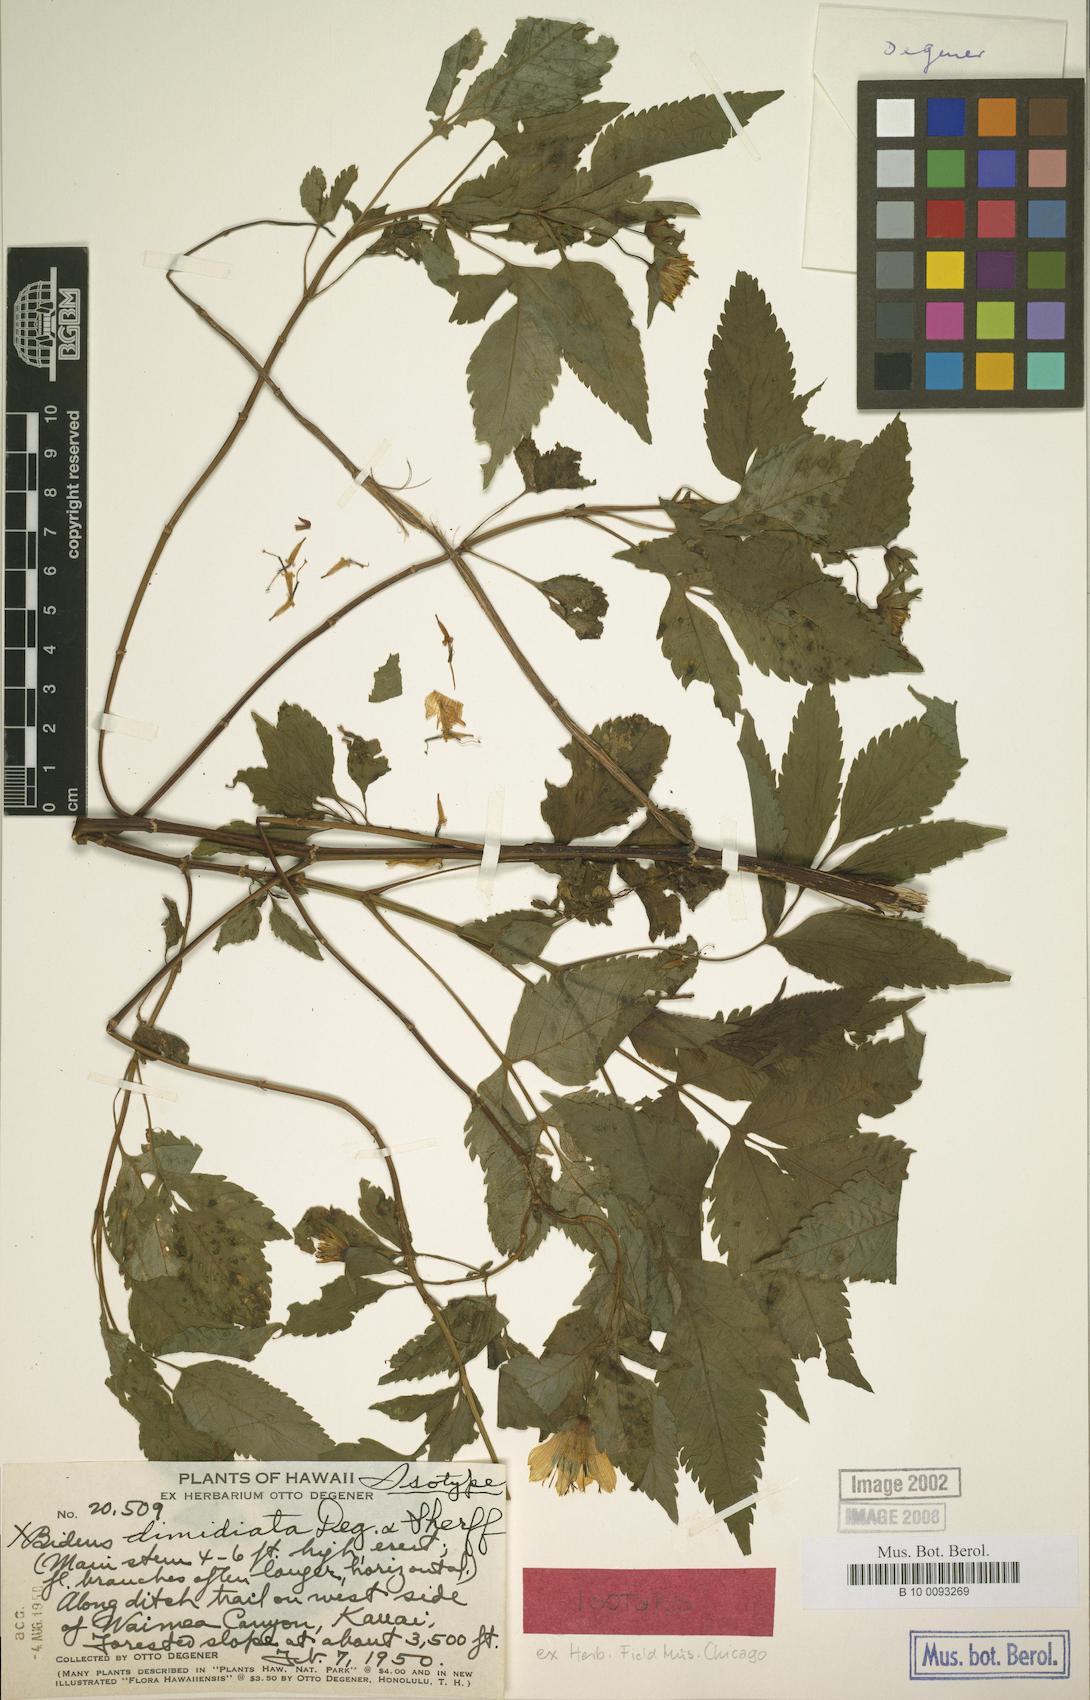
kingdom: Plantae
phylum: Tracheophyta
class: Magnoliopsida
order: Asterales
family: Asteraceae
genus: Bidens
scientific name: Bidens cosmoides
